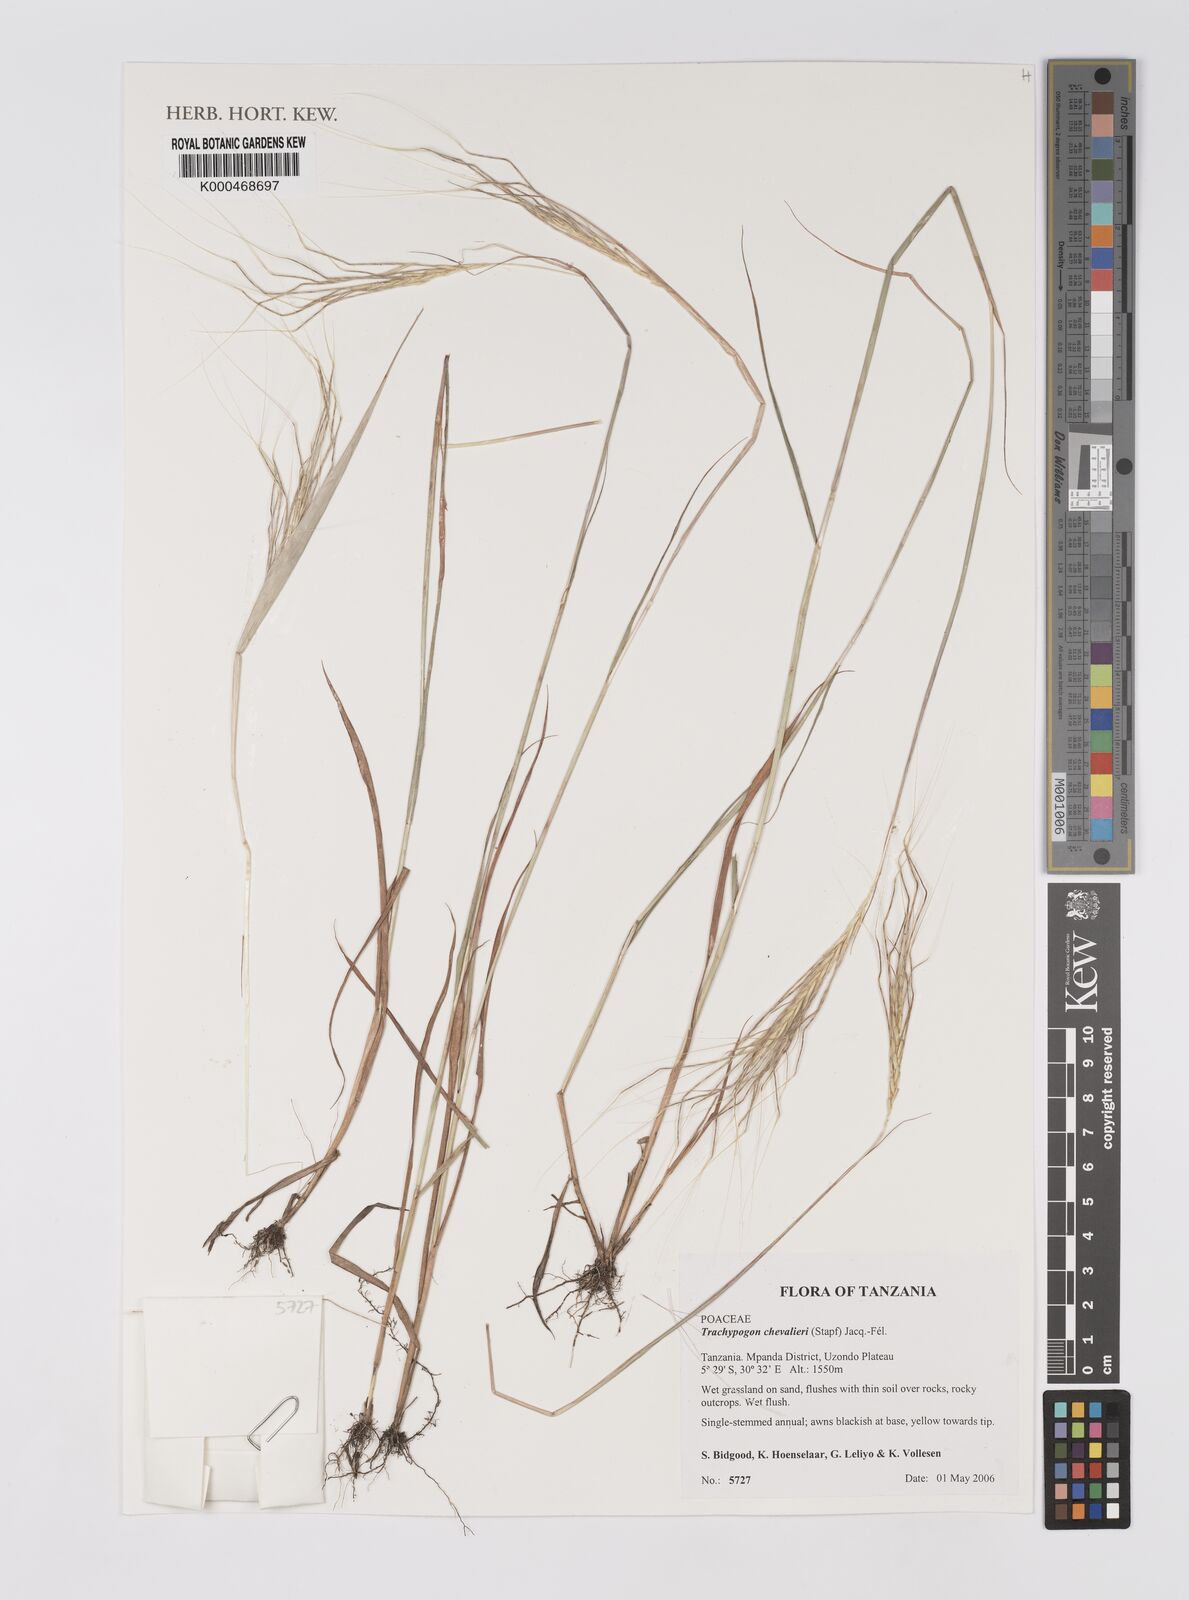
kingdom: Plantae
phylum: Tracheophyta
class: Liliopsida
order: Poales
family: Poaceae
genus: Trachypogon
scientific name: Trachypogon
